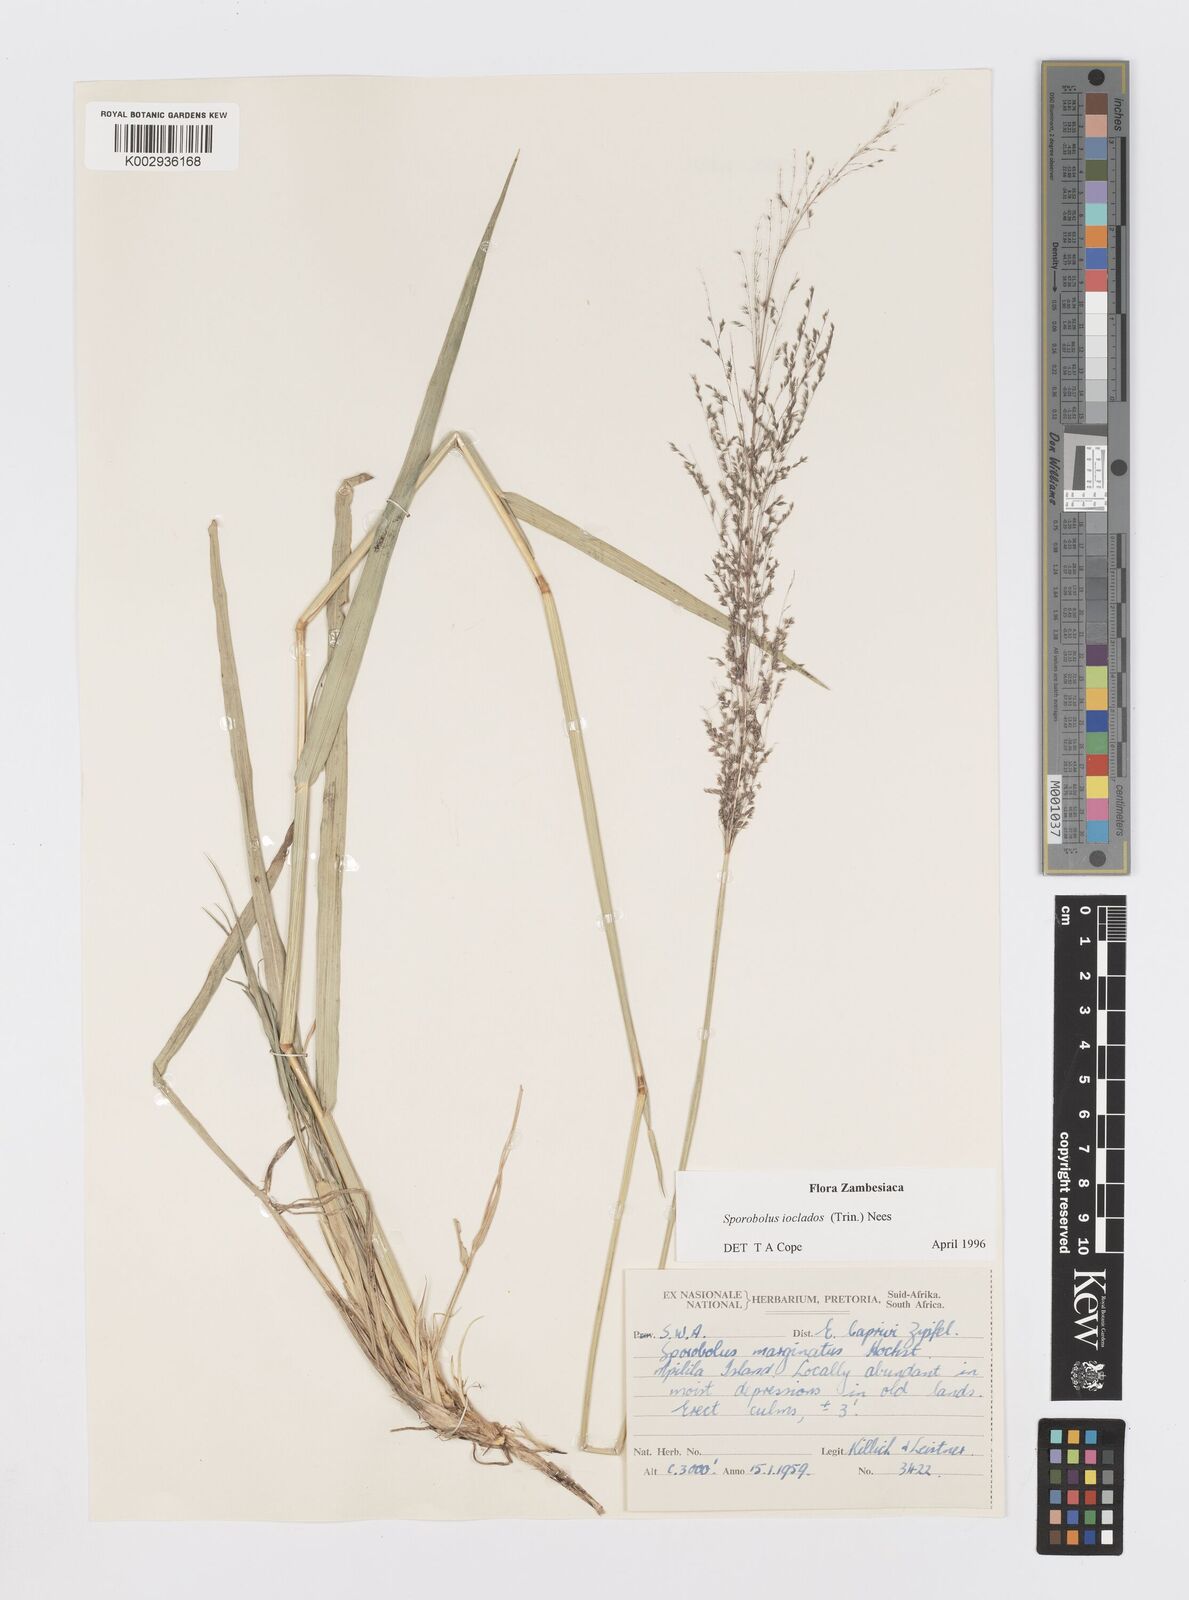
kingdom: Plantae
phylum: Tracheophyta
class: Liliopsida
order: Poales
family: Poaceae
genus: Sporobolus
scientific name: Sporobolus ioclados
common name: Pan dropseed
